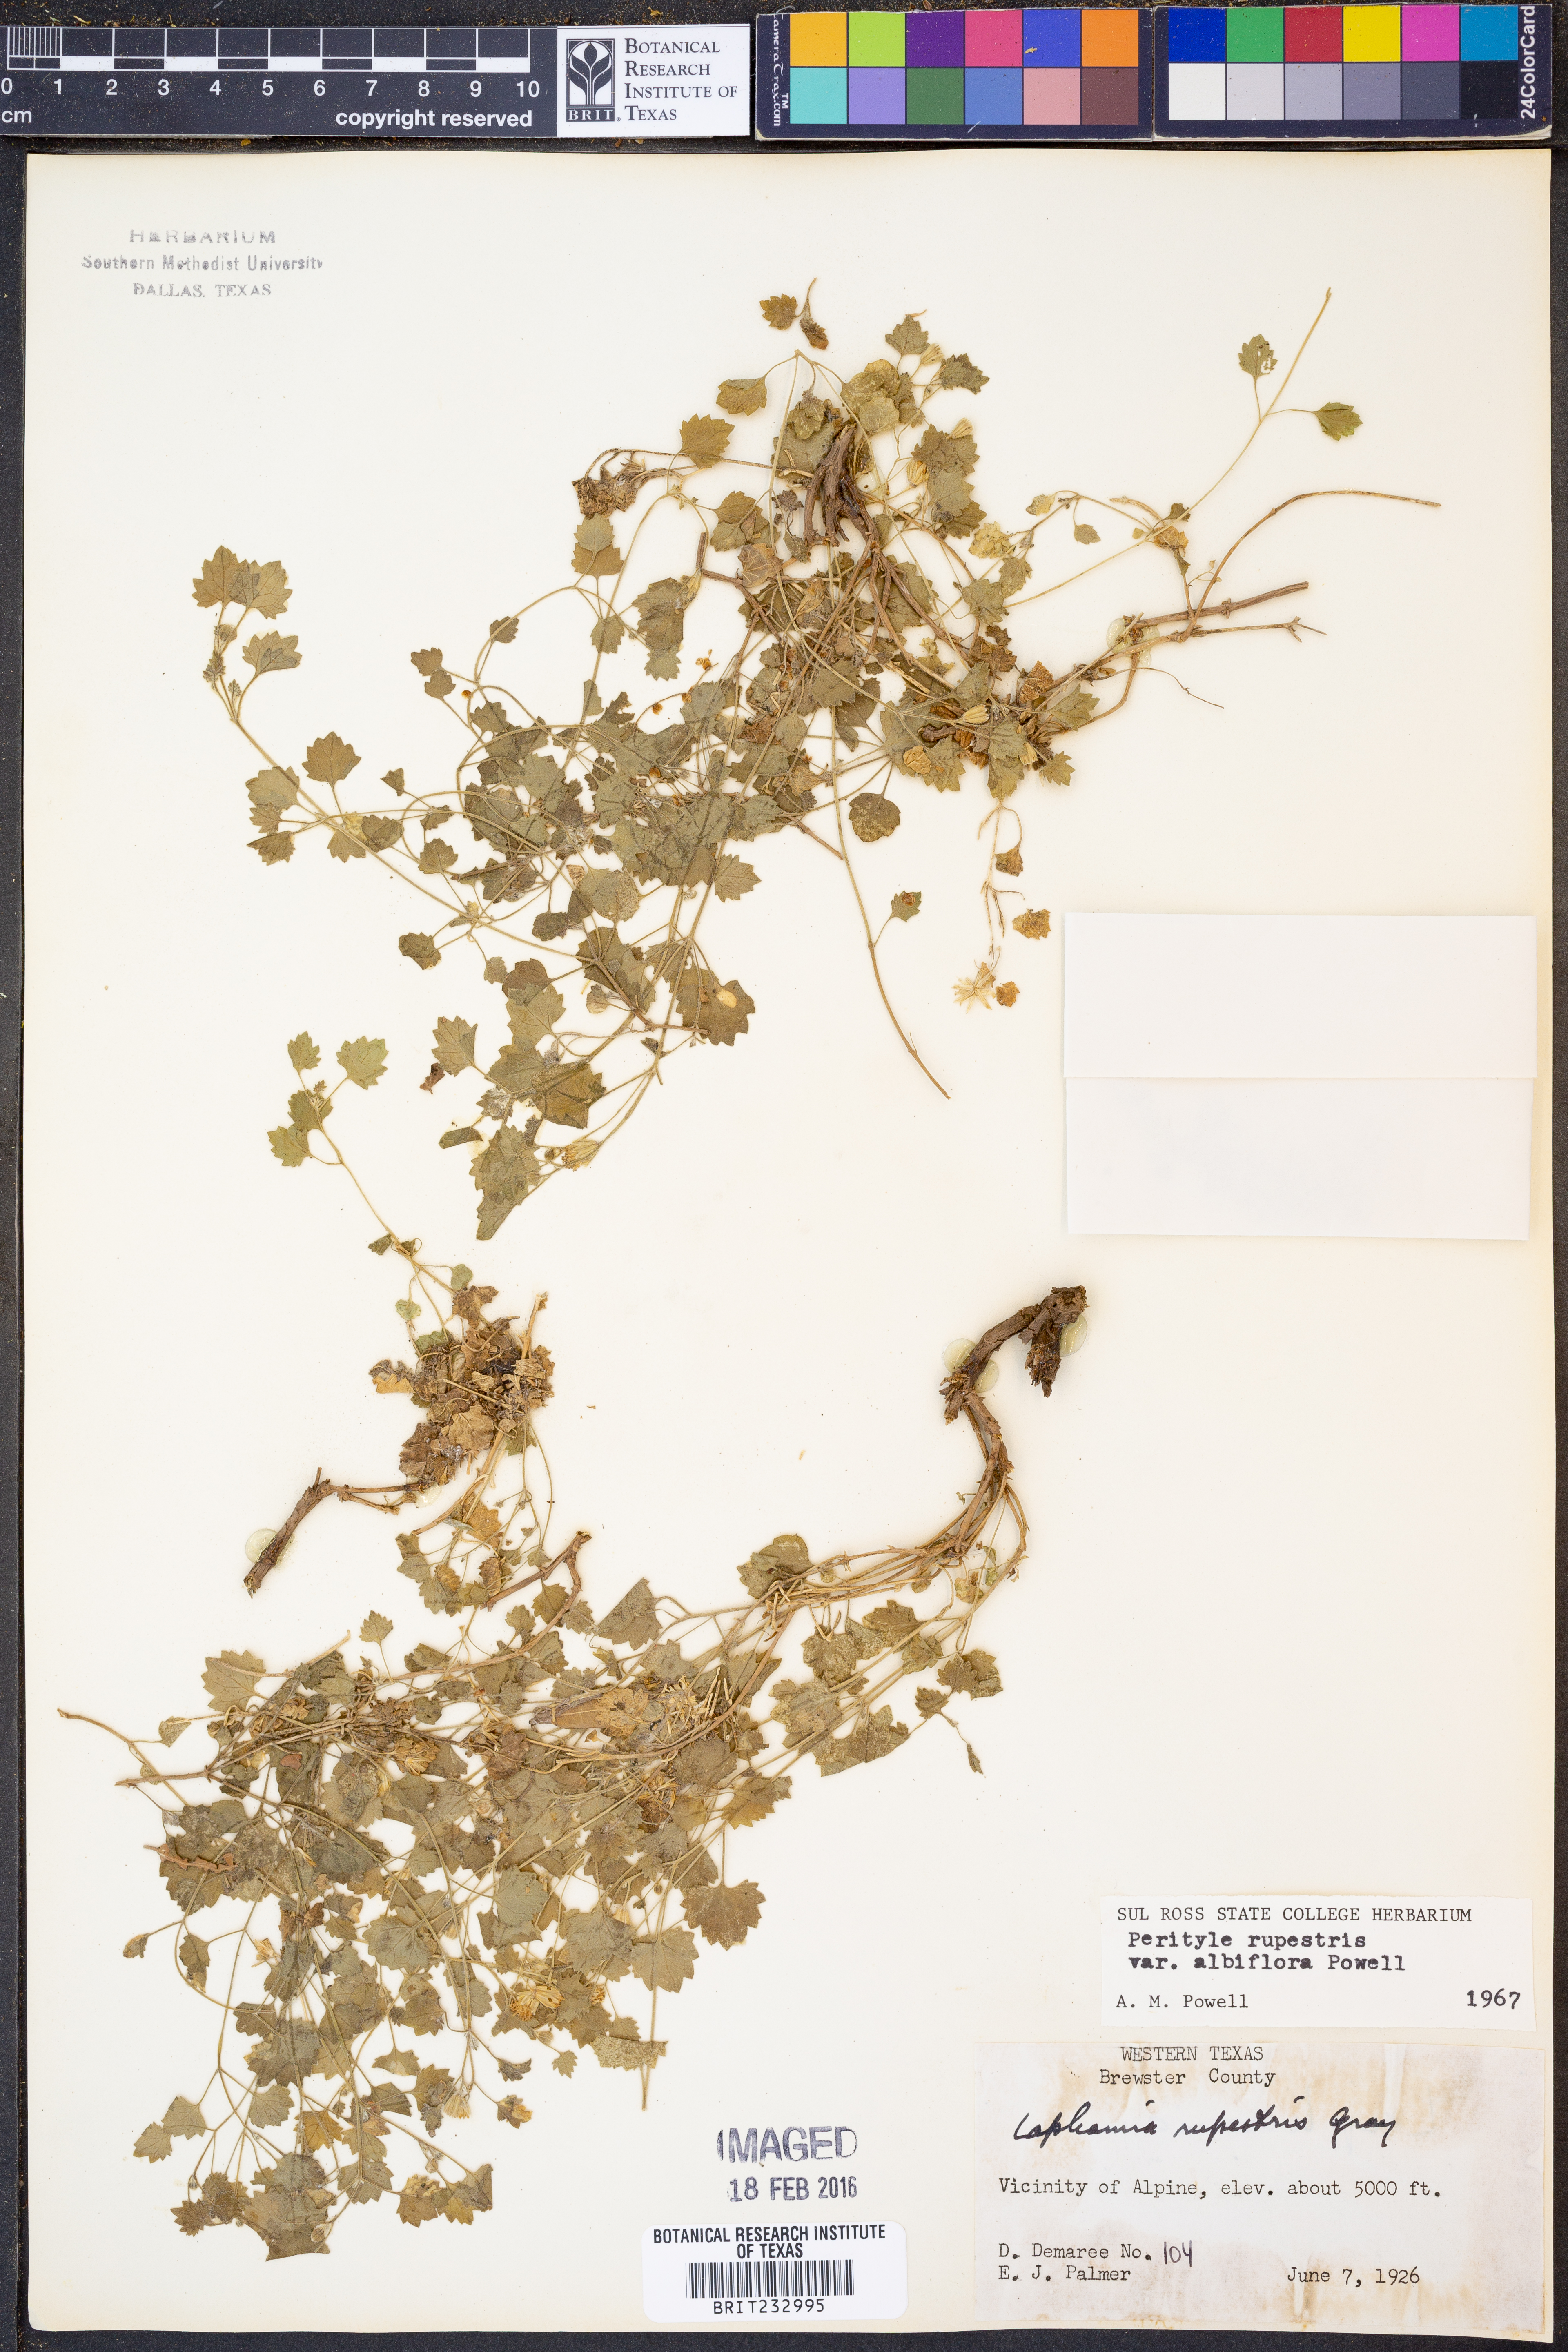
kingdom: Plantae
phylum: Tracheophyta
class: Magnoliopsida
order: Asterales
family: Asteraceae
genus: Laphamia
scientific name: Laphamia rupestris
